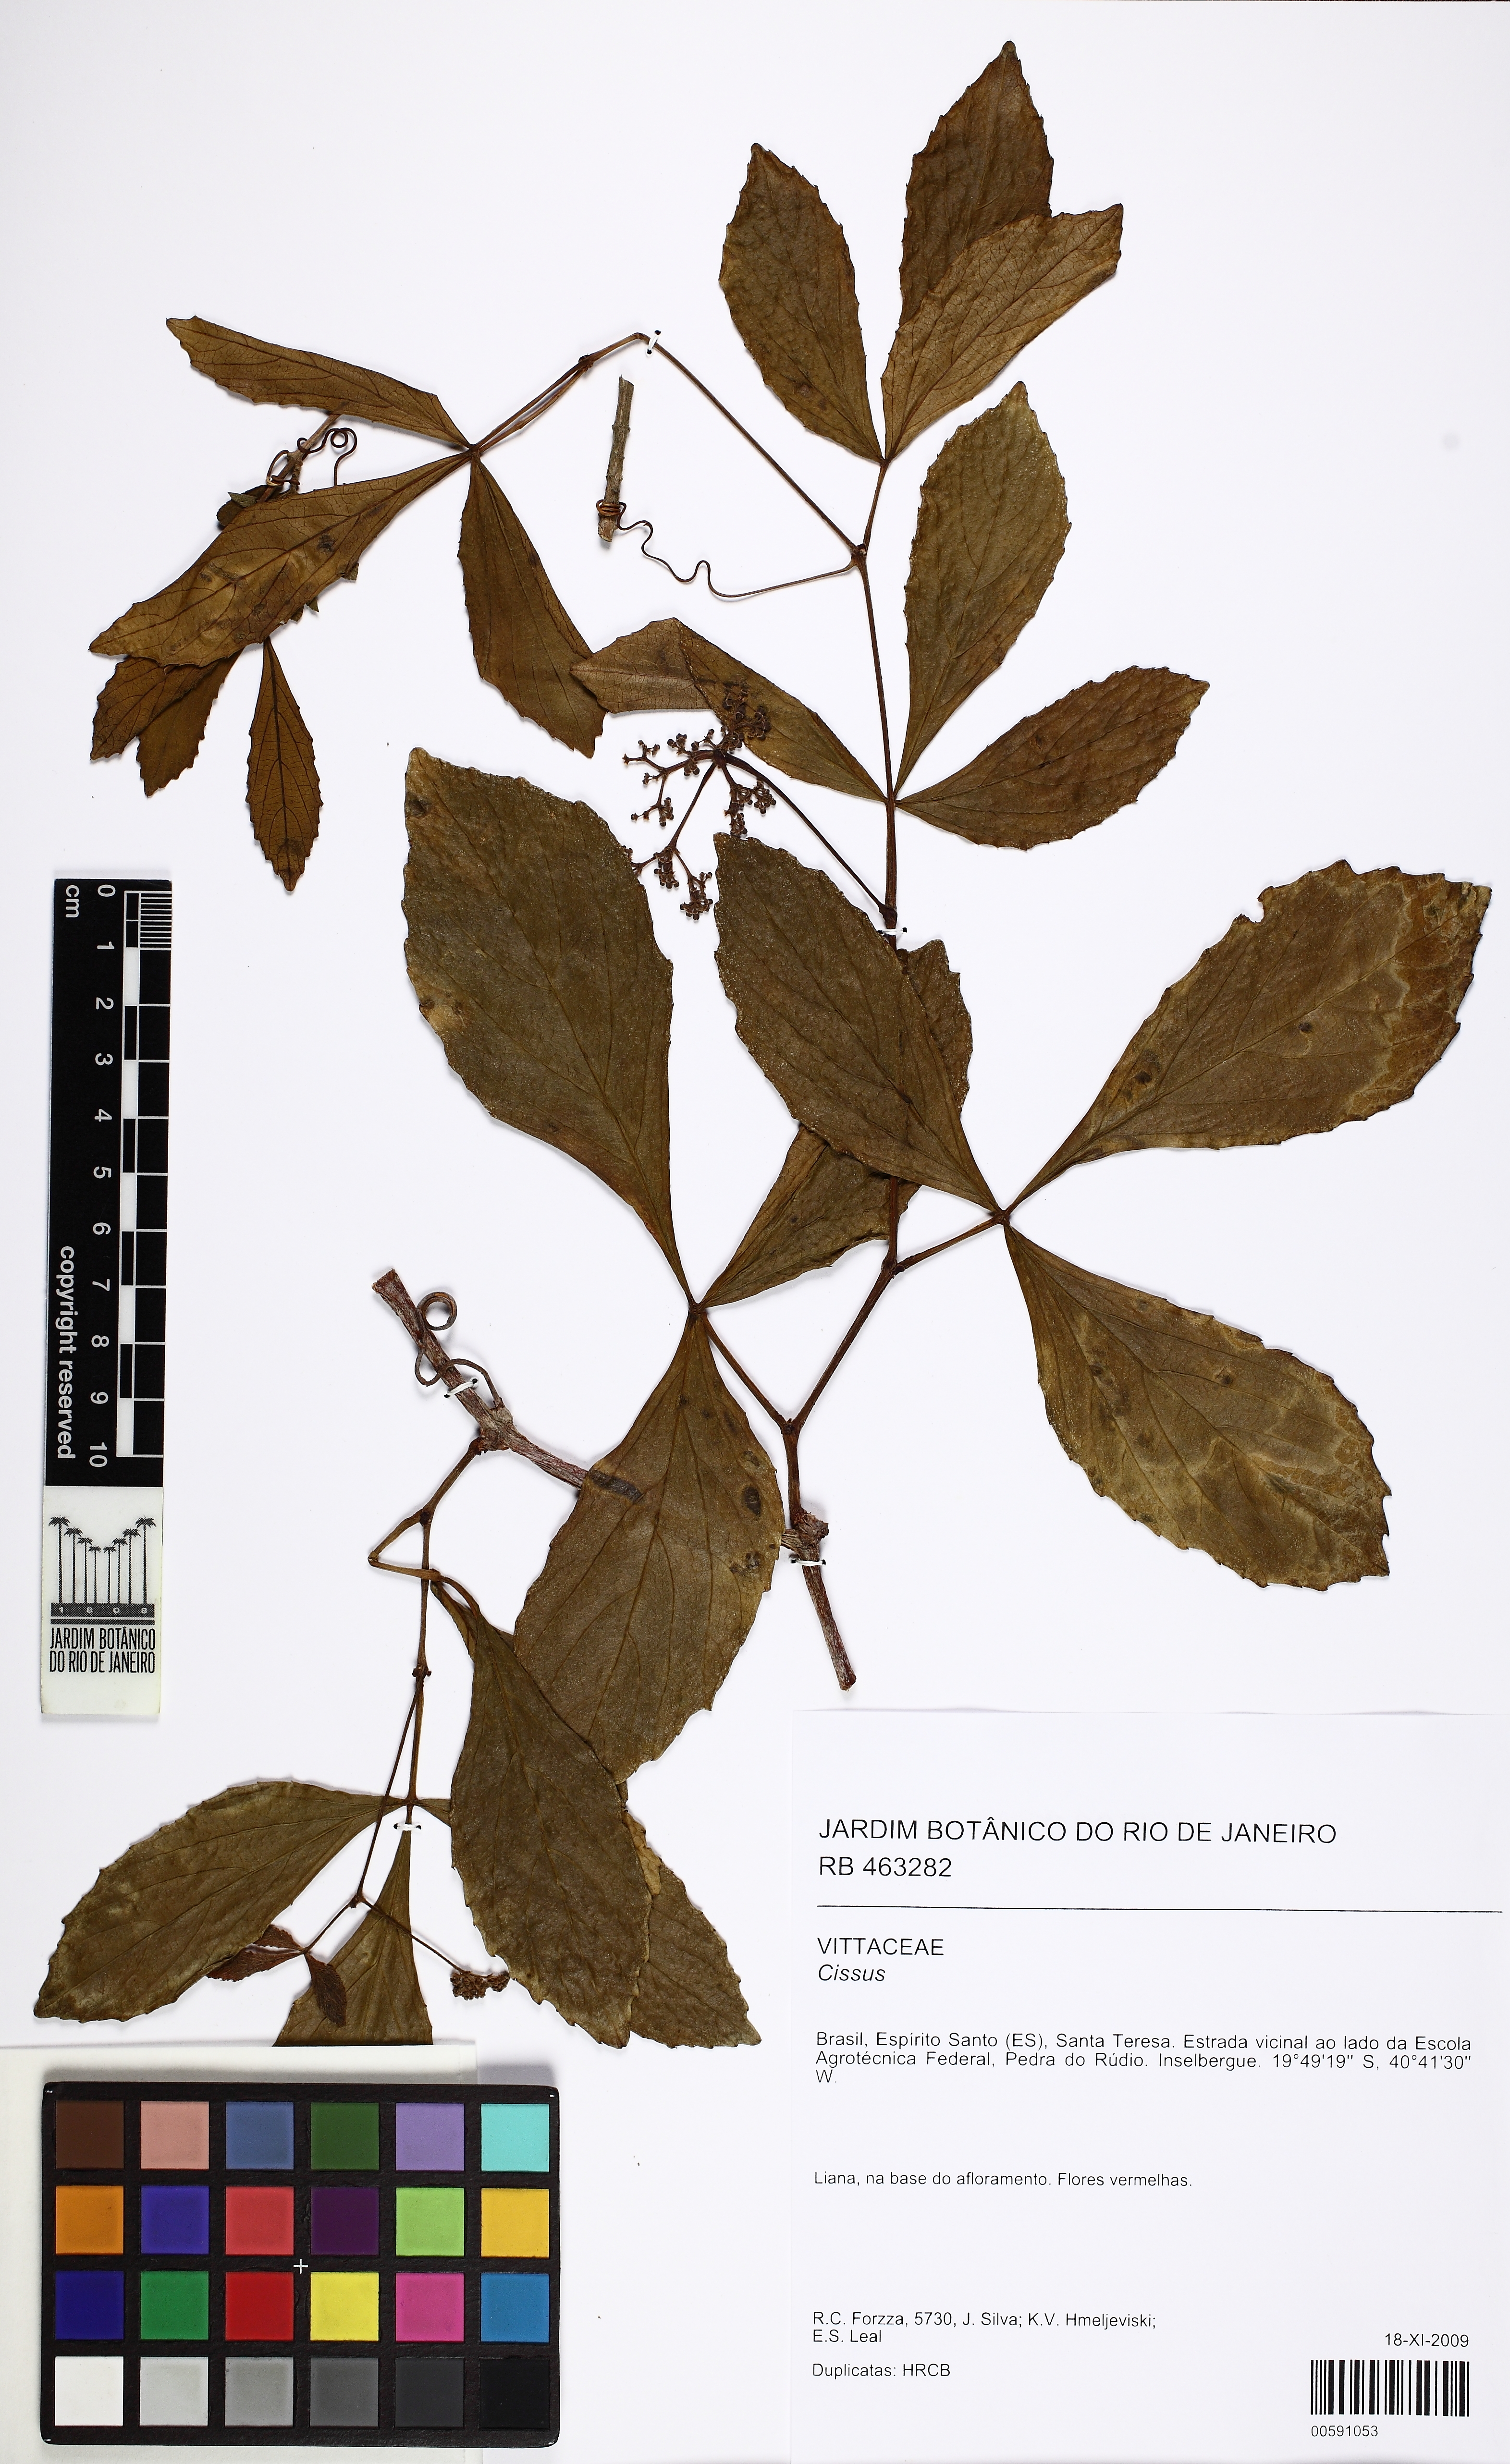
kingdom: Plantae
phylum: Tracheophyta
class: Magnoliopsida
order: Vitales
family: Vitaceae
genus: Cissus
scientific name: Cissus
